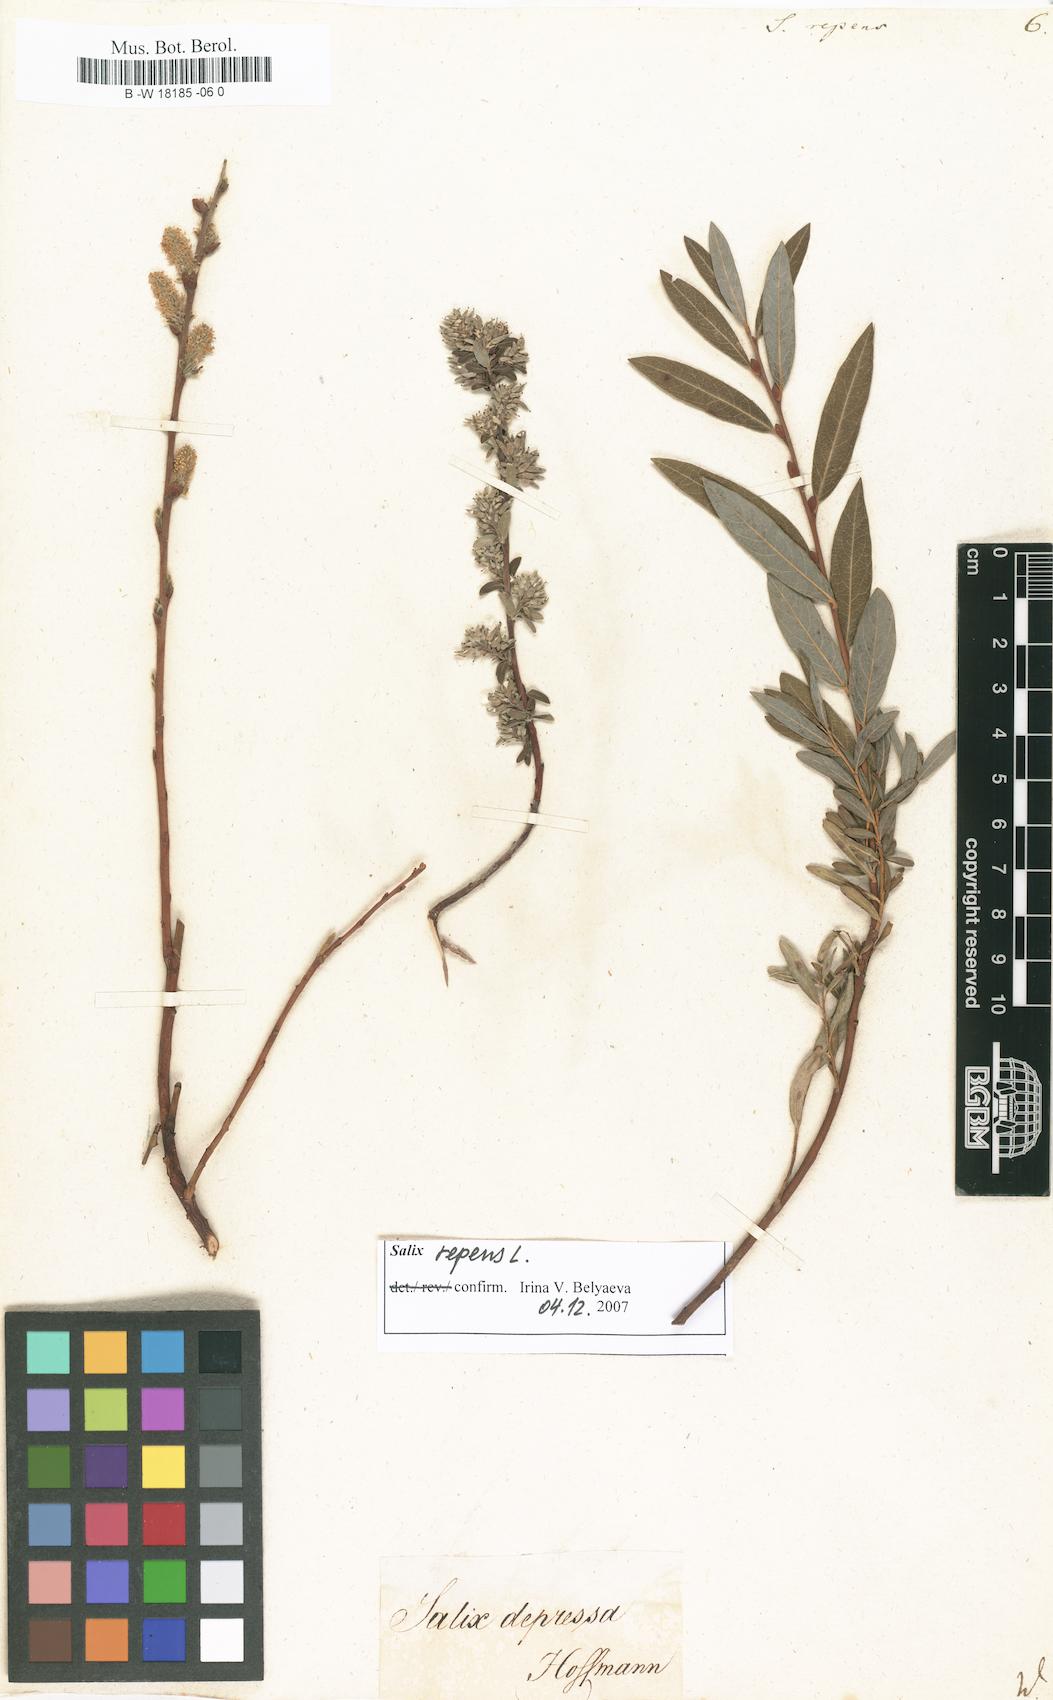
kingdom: Plantae
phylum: Tracheophyta
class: Magnoliopsida
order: Malpighiales
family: Salicaceae
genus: Salix
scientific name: Salix repens
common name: Creeping willow
